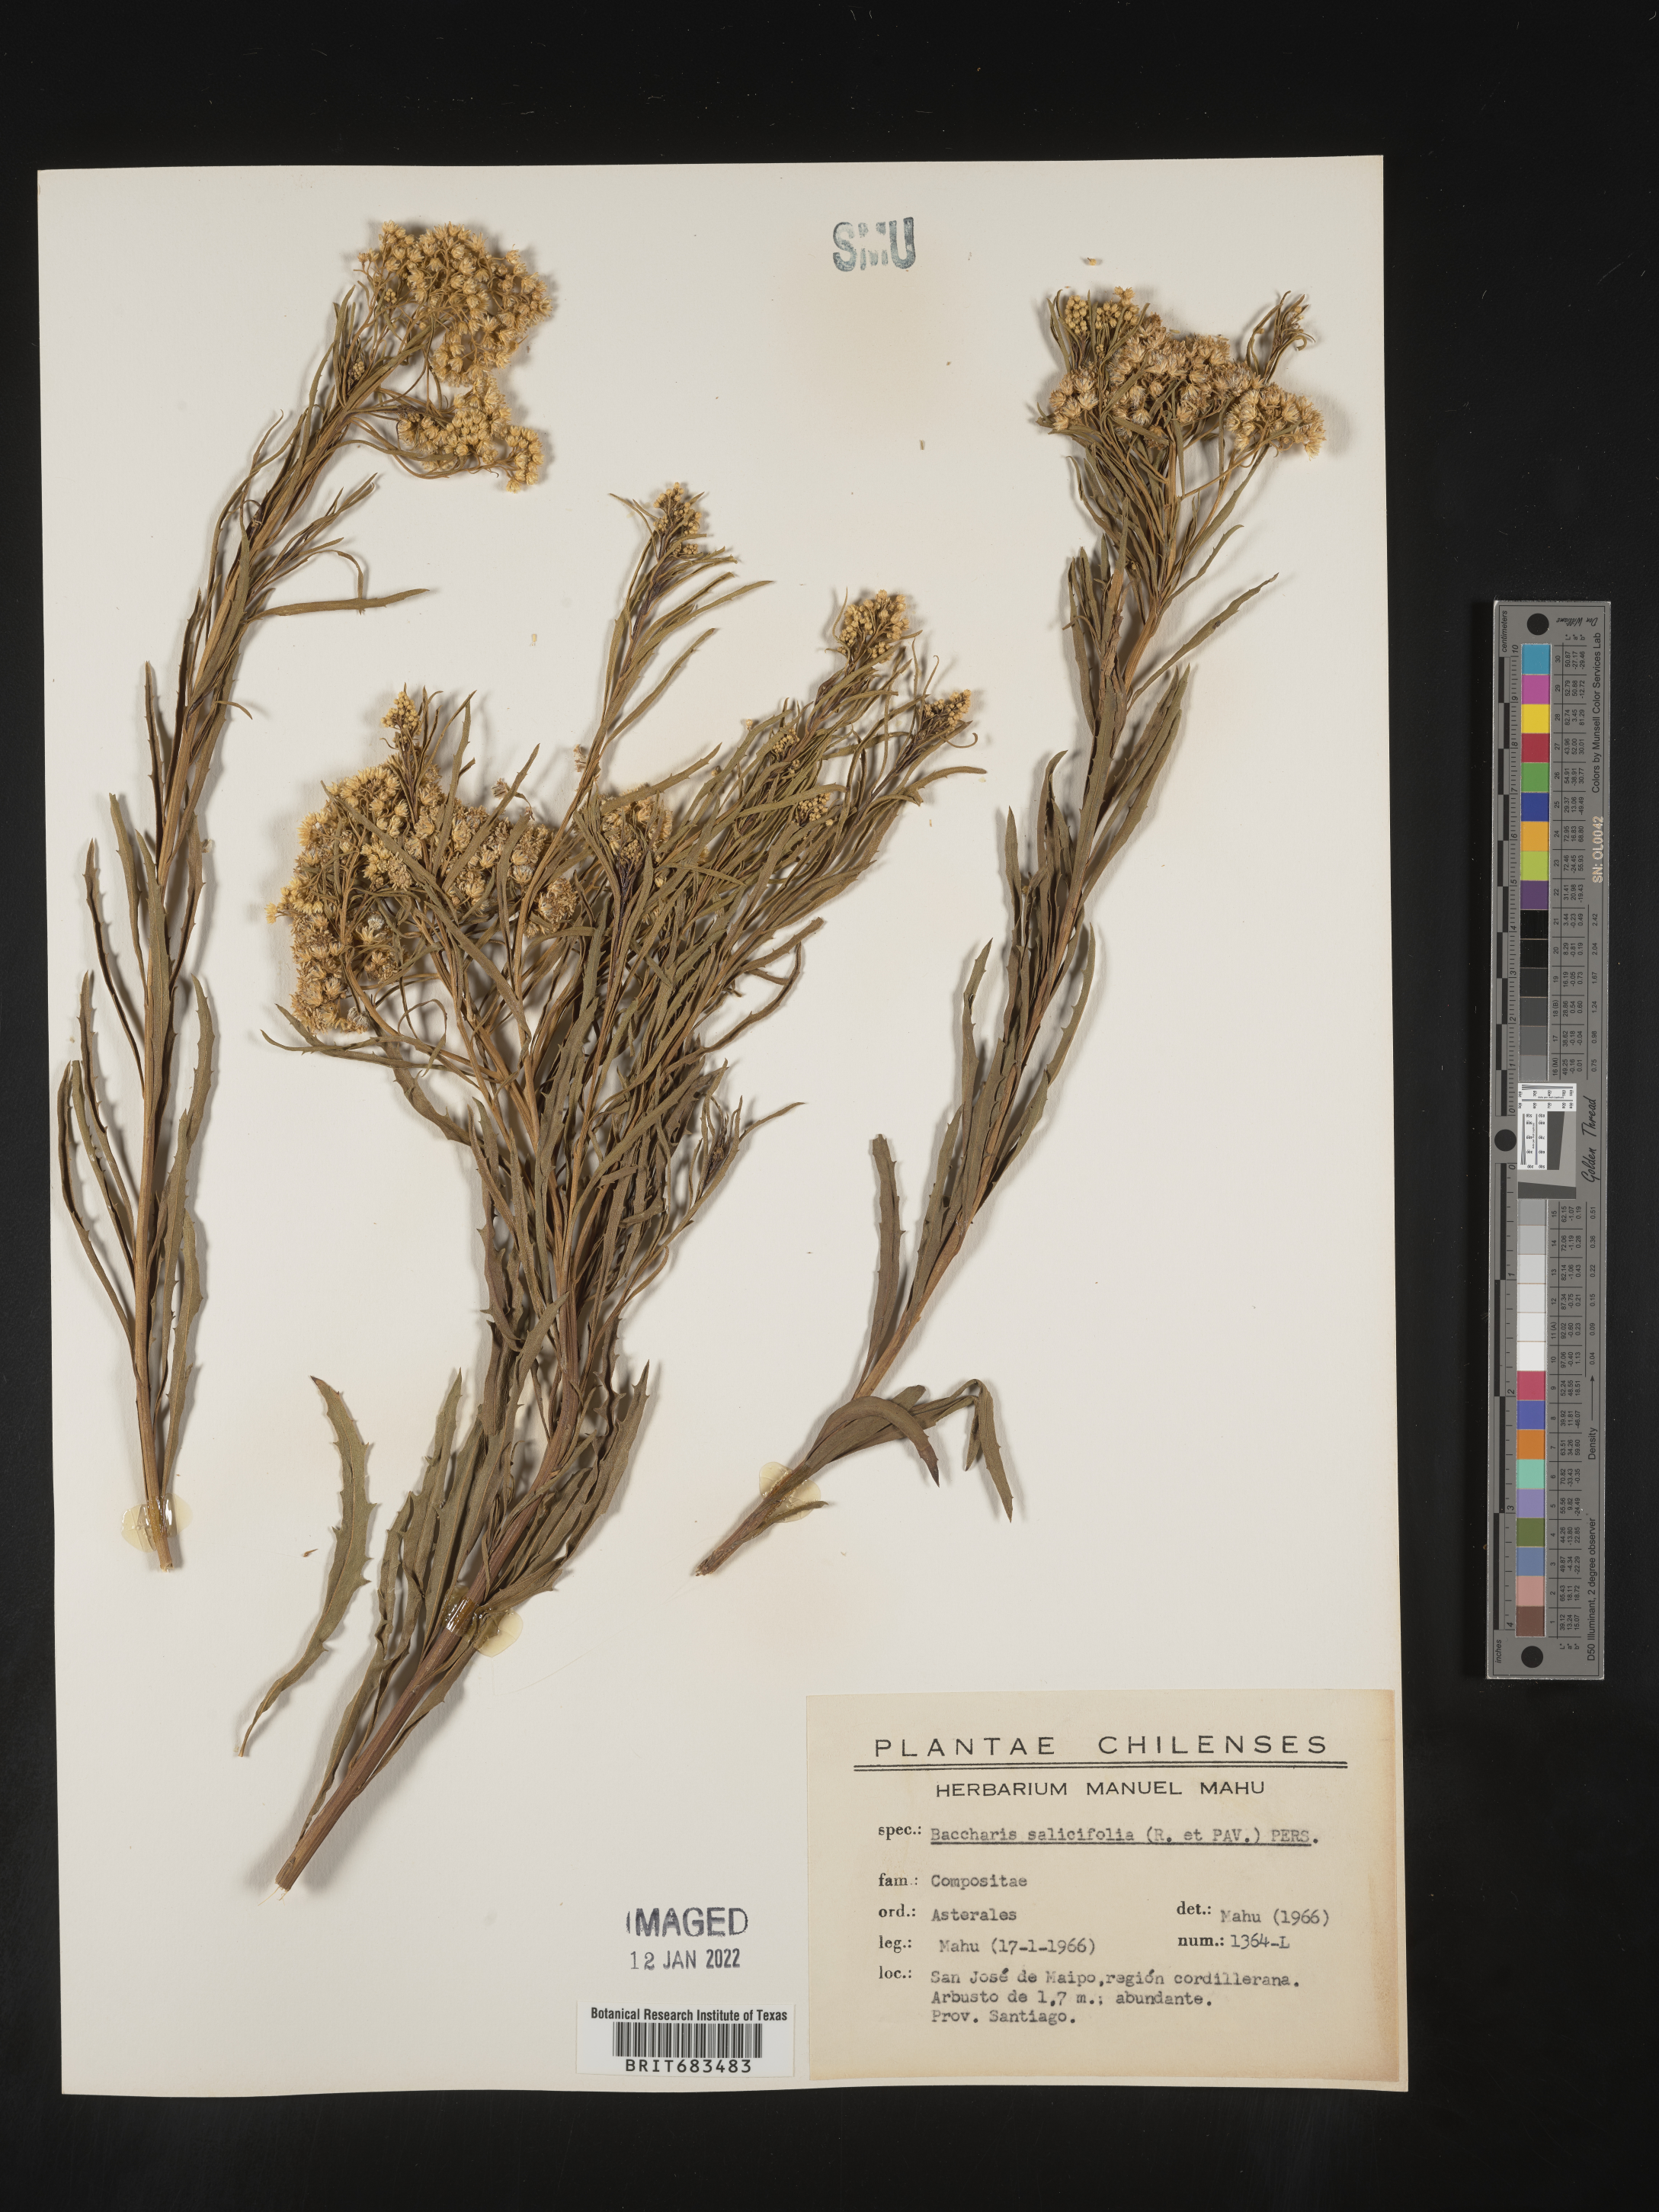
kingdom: Plantae
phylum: Tracheophyta
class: Magnoliopsida
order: Asterales
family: Asteraceae
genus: Baccharis
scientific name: Baccharis
